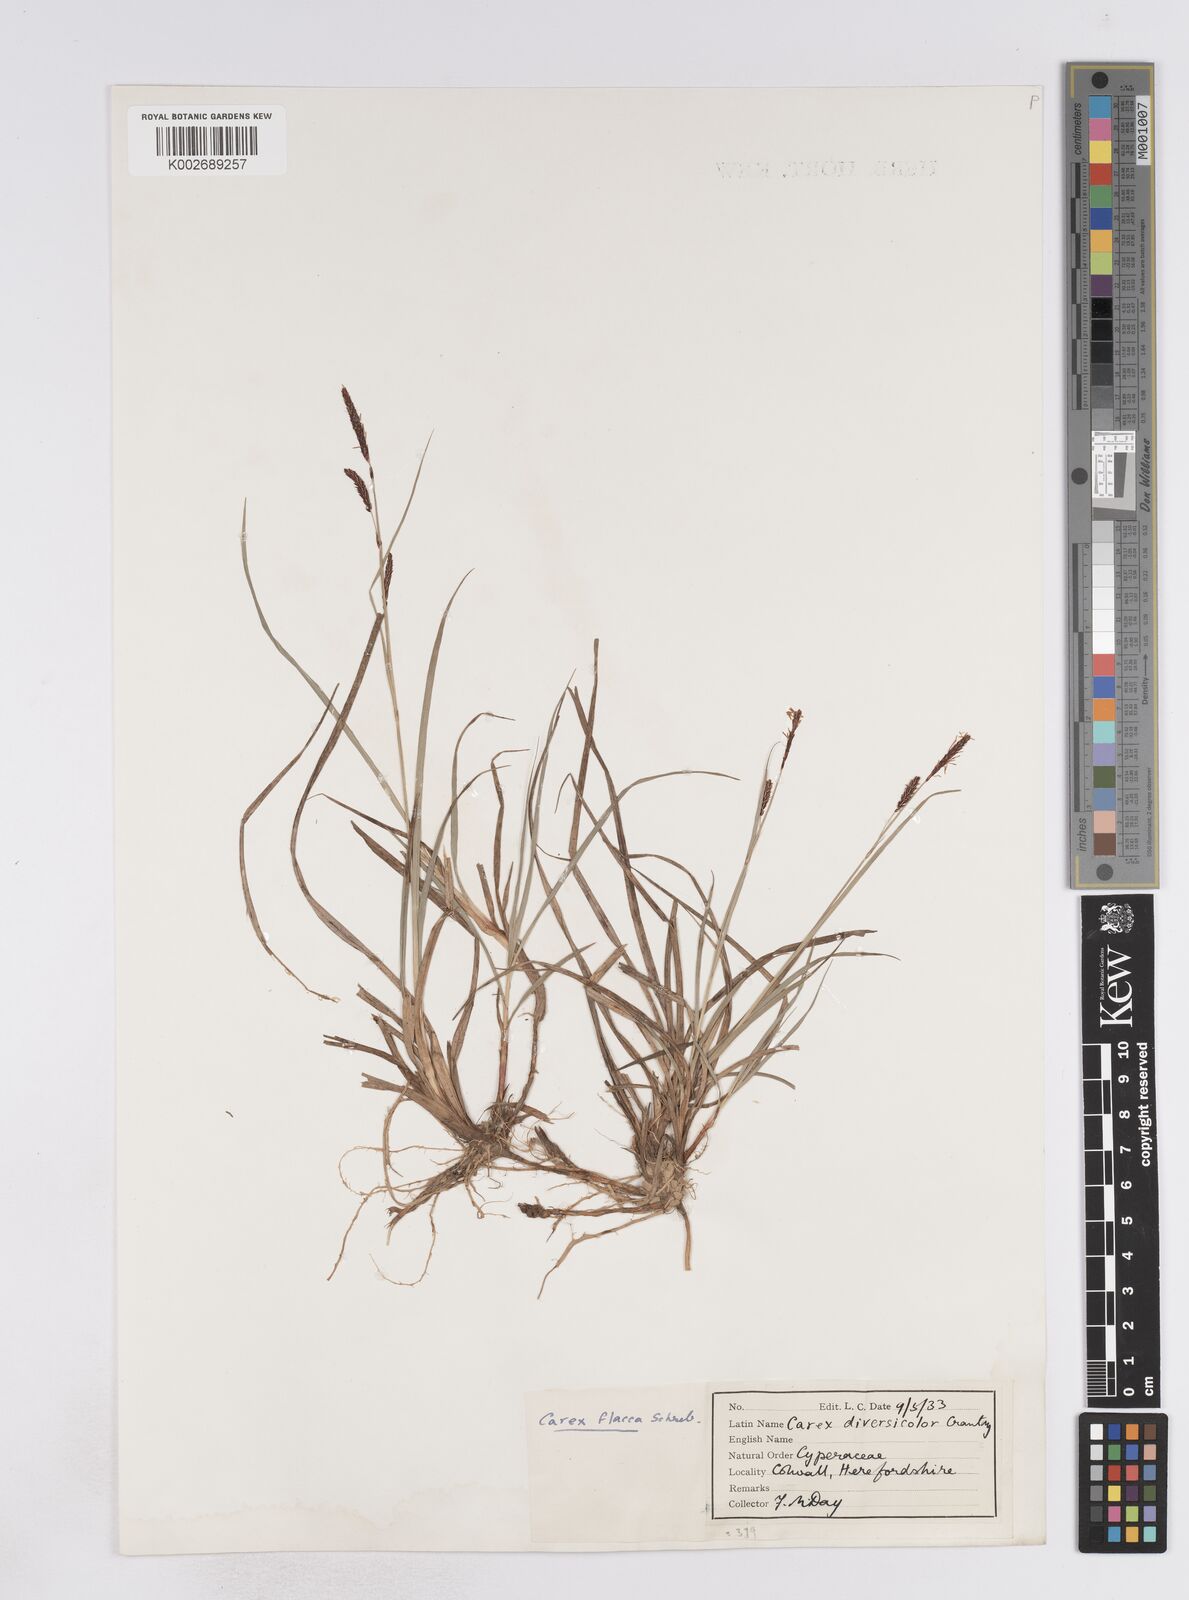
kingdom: Plantae
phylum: Tracheophyta
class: Liliopsida
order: Poales
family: Cyperaceae
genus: Carex
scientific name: Carex flacca
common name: Glaucous sedge
